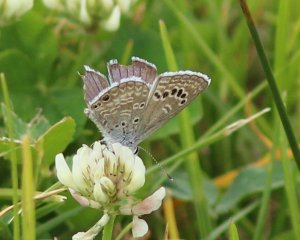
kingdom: Animalia
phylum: Arthropoda
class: Insecta
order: Lepidoptera
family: Lycaenidae
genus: Echinargus
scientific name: Echinargus isola
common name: Reakirt's Blue
